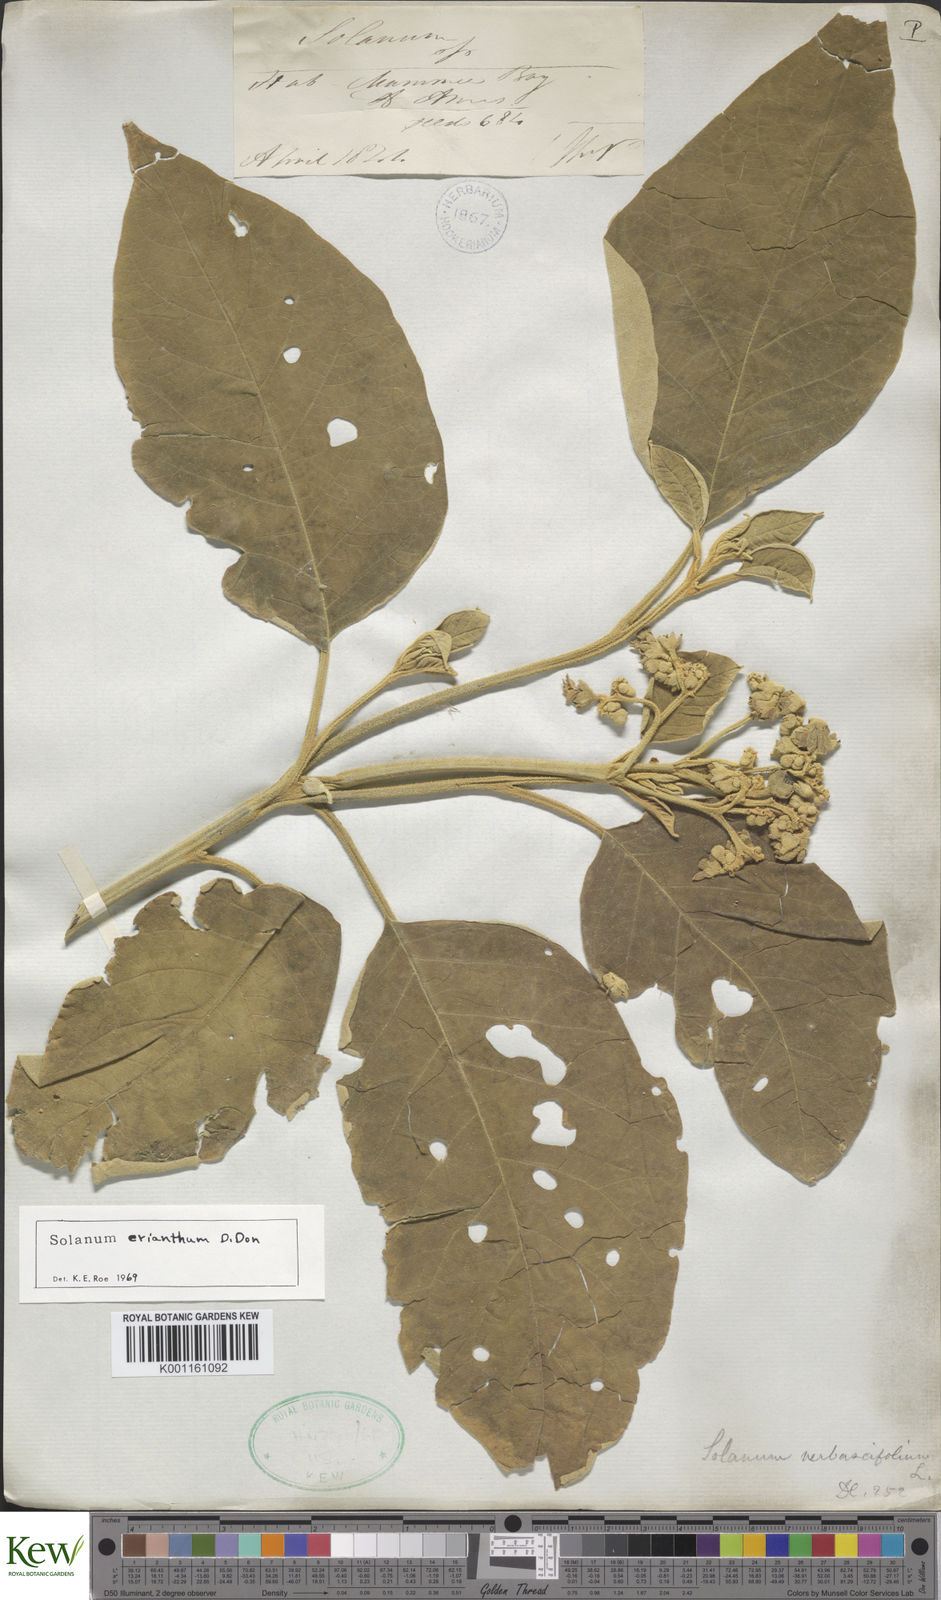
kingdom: Plantae
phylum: Tracheophyta
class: Magnoliopsida
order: Solanales
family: Solanaceae
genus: Solanum
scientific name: Solanum erianthum
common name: Tobacco-tree
